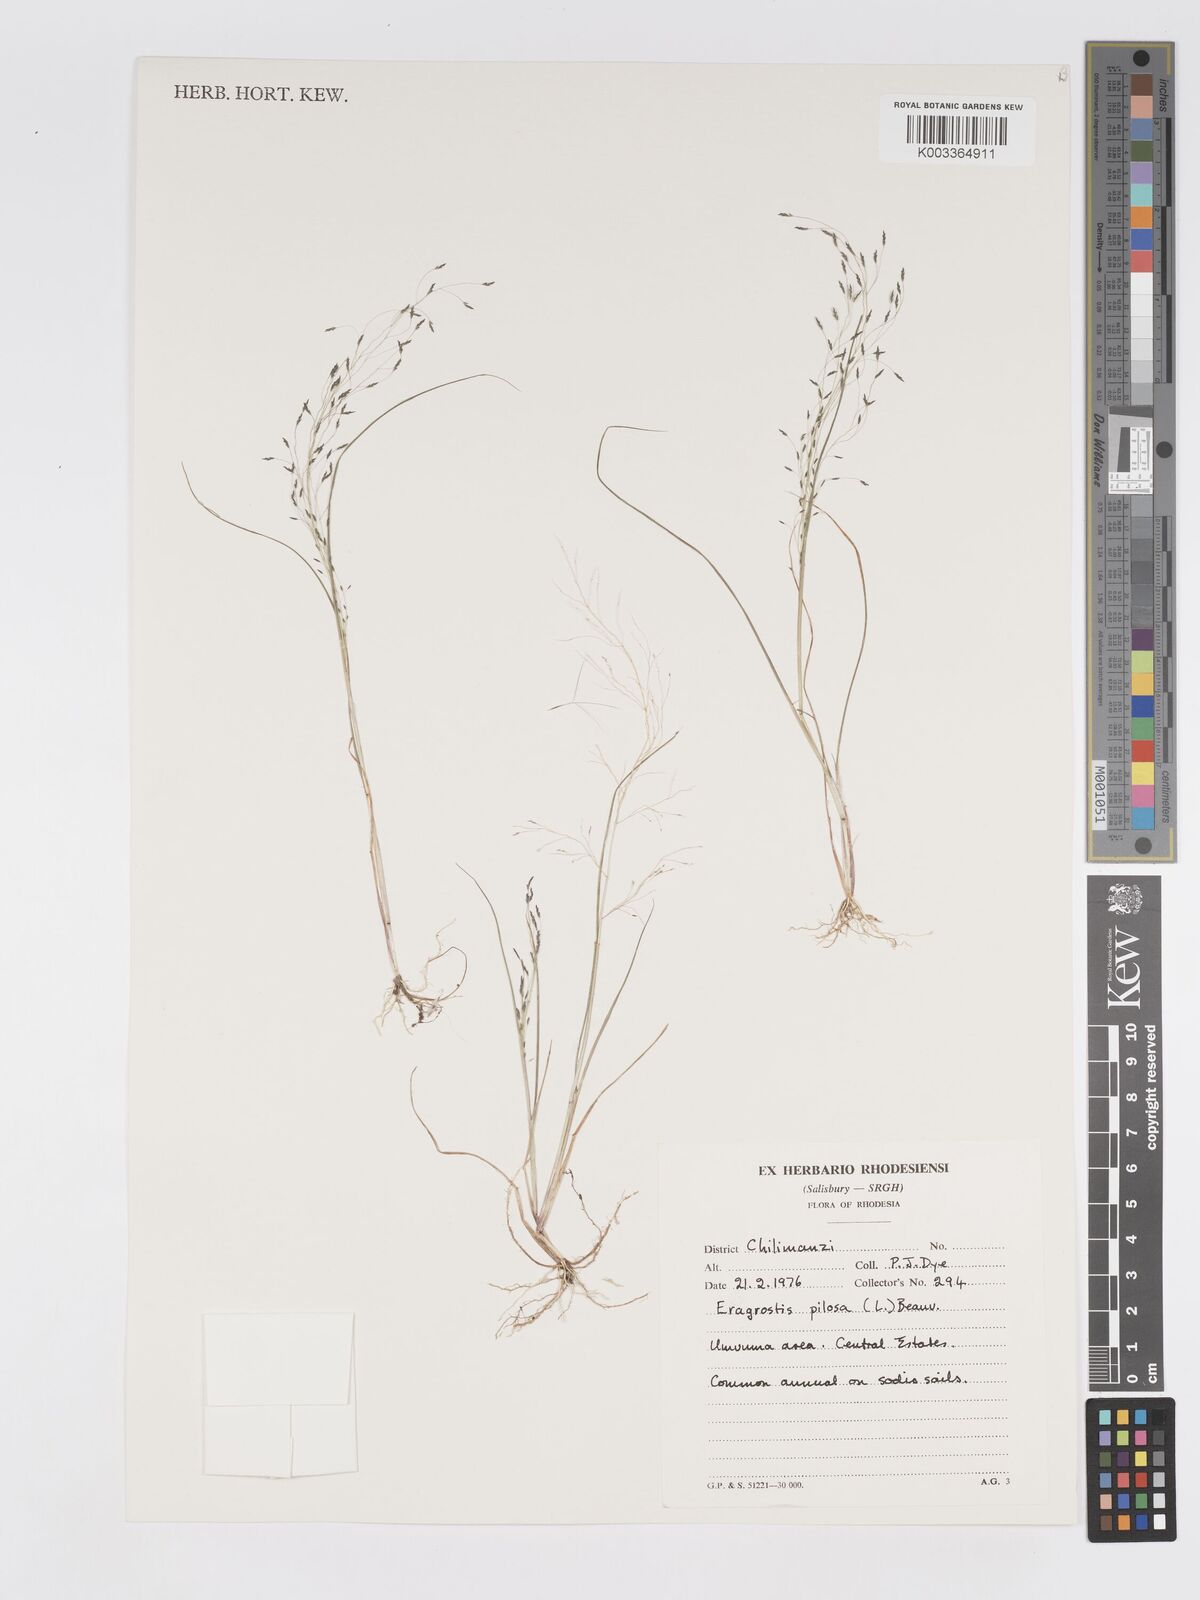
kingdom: Plantae
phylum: Tracheophyta
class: Liliopsida
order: Poales
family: Poaceae
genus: Eragrostis
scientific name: Eragrostis pilosa
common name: Indian lovegrass
